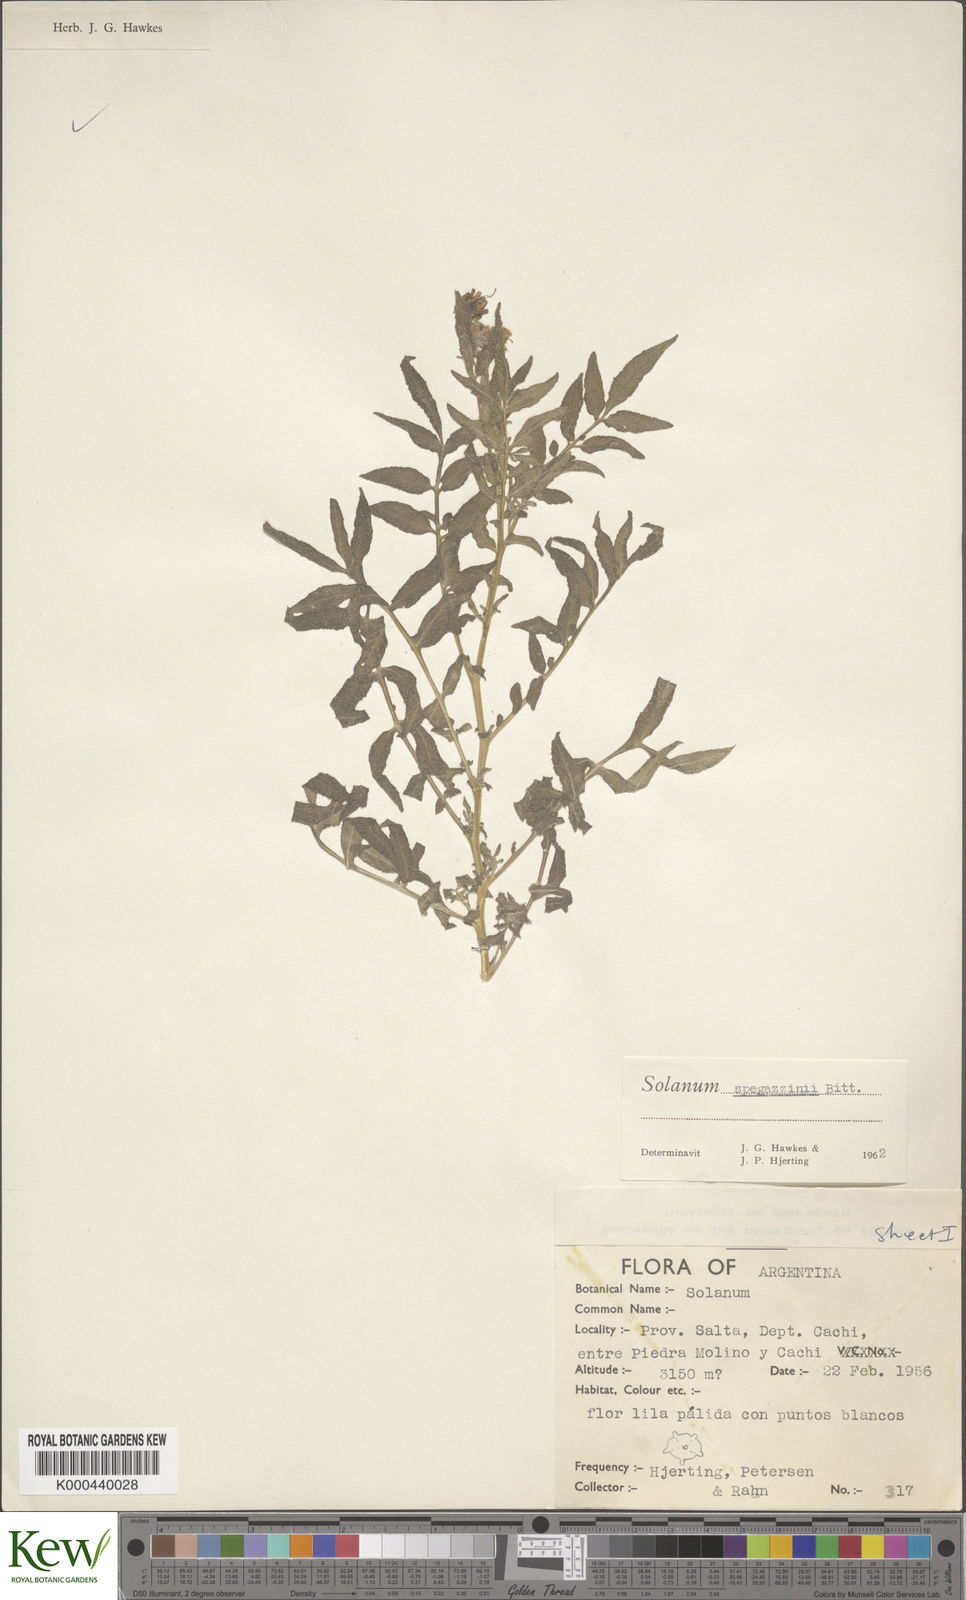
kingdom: Plantae
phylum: Tracheophyta
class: Magnoliopsida
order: Solanales
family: Solanaceae
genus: Solanum
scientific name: Solanum brevicaule
